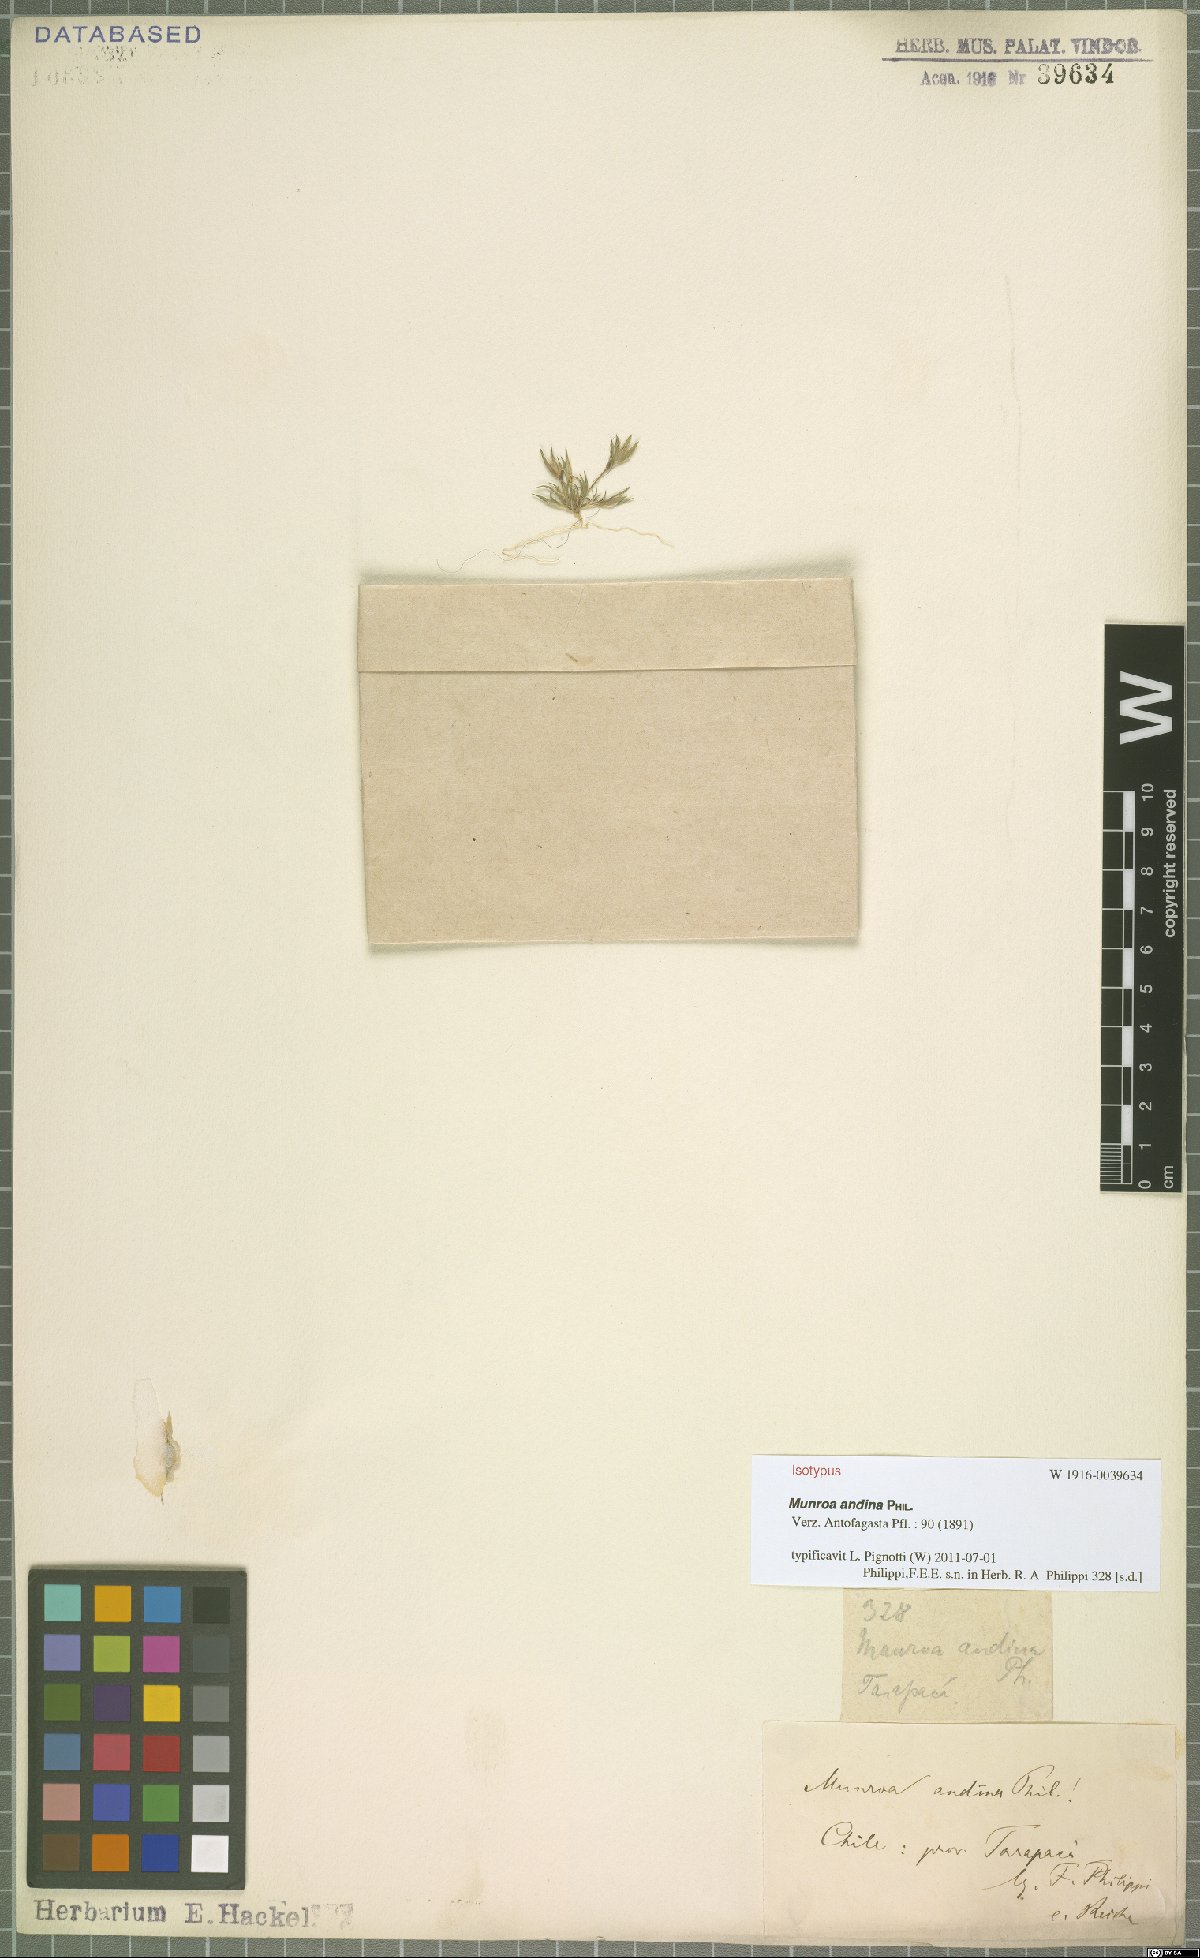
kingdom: Plantae
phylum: Tracheophyta
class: Liliopsida
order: Poales
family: Poaceae
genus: Munroa
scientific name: Munroa andina
